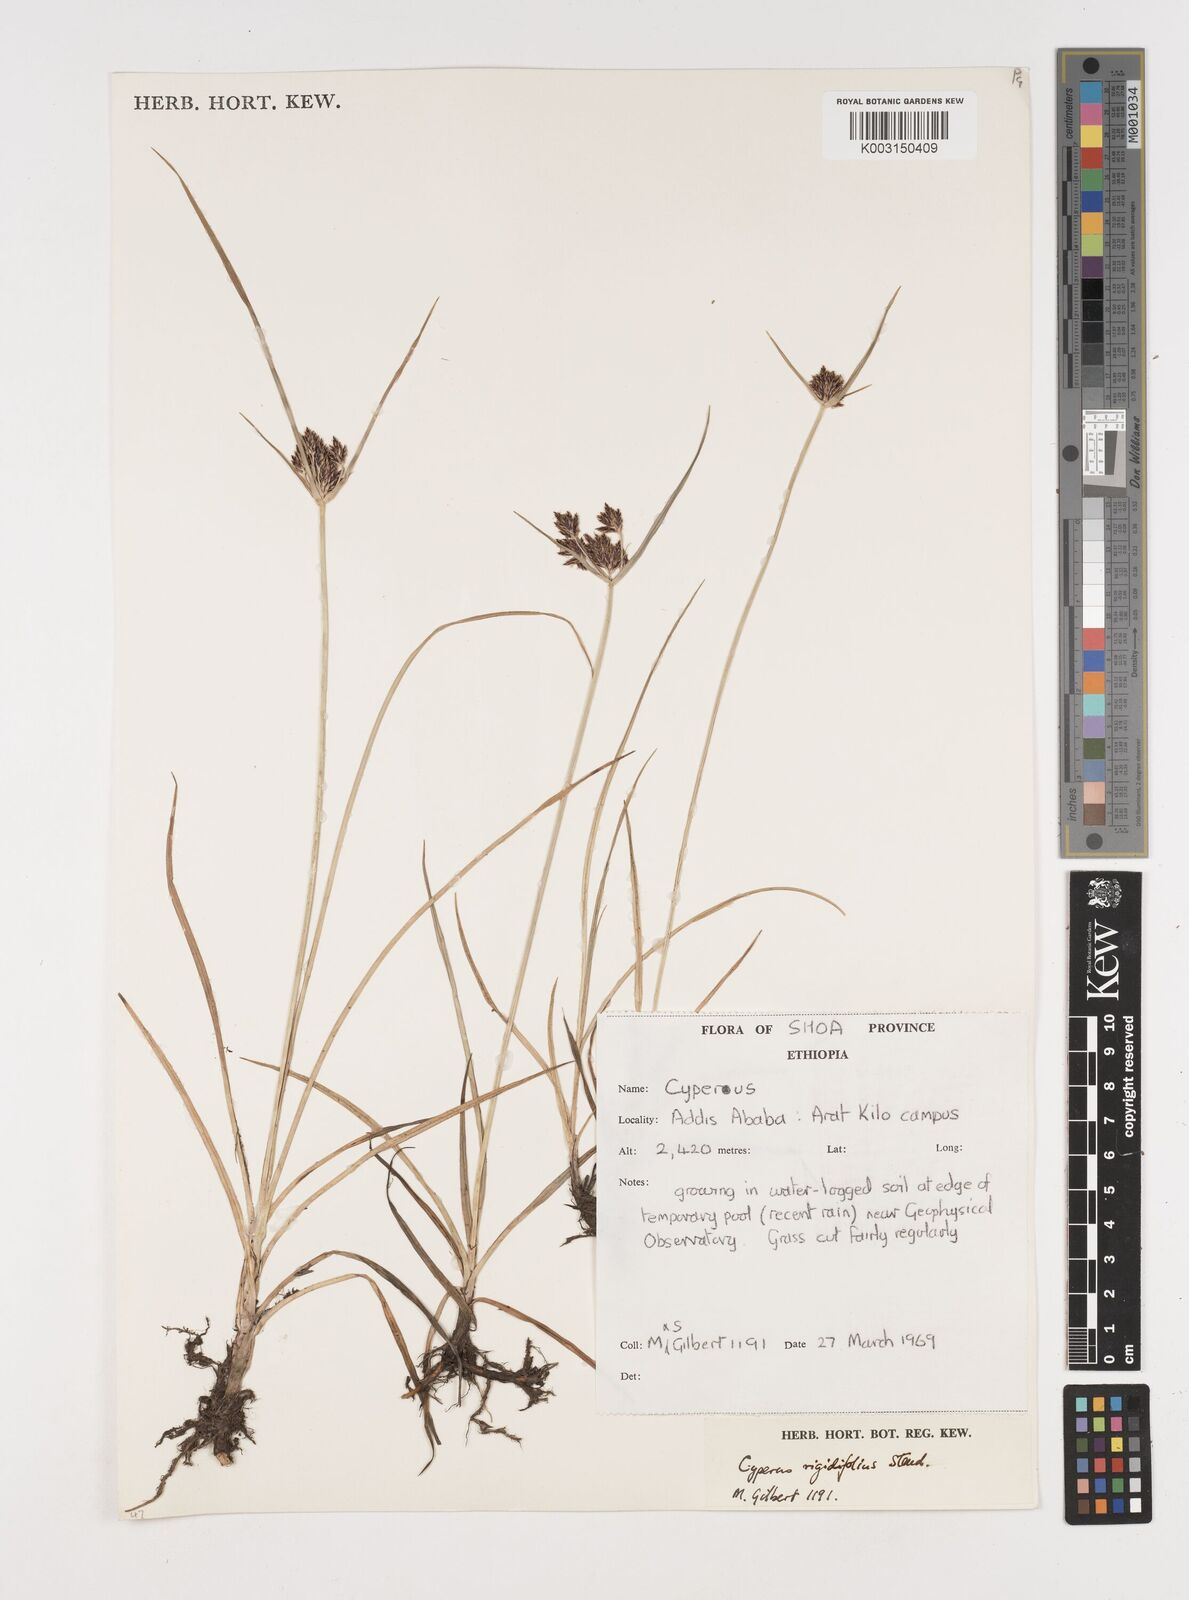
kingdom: Plantae
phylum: Tracheophyta
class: Liliopsida
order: Poales
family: Cyperaceae
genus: Cyperus
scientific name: Cyperus rigidifolius
